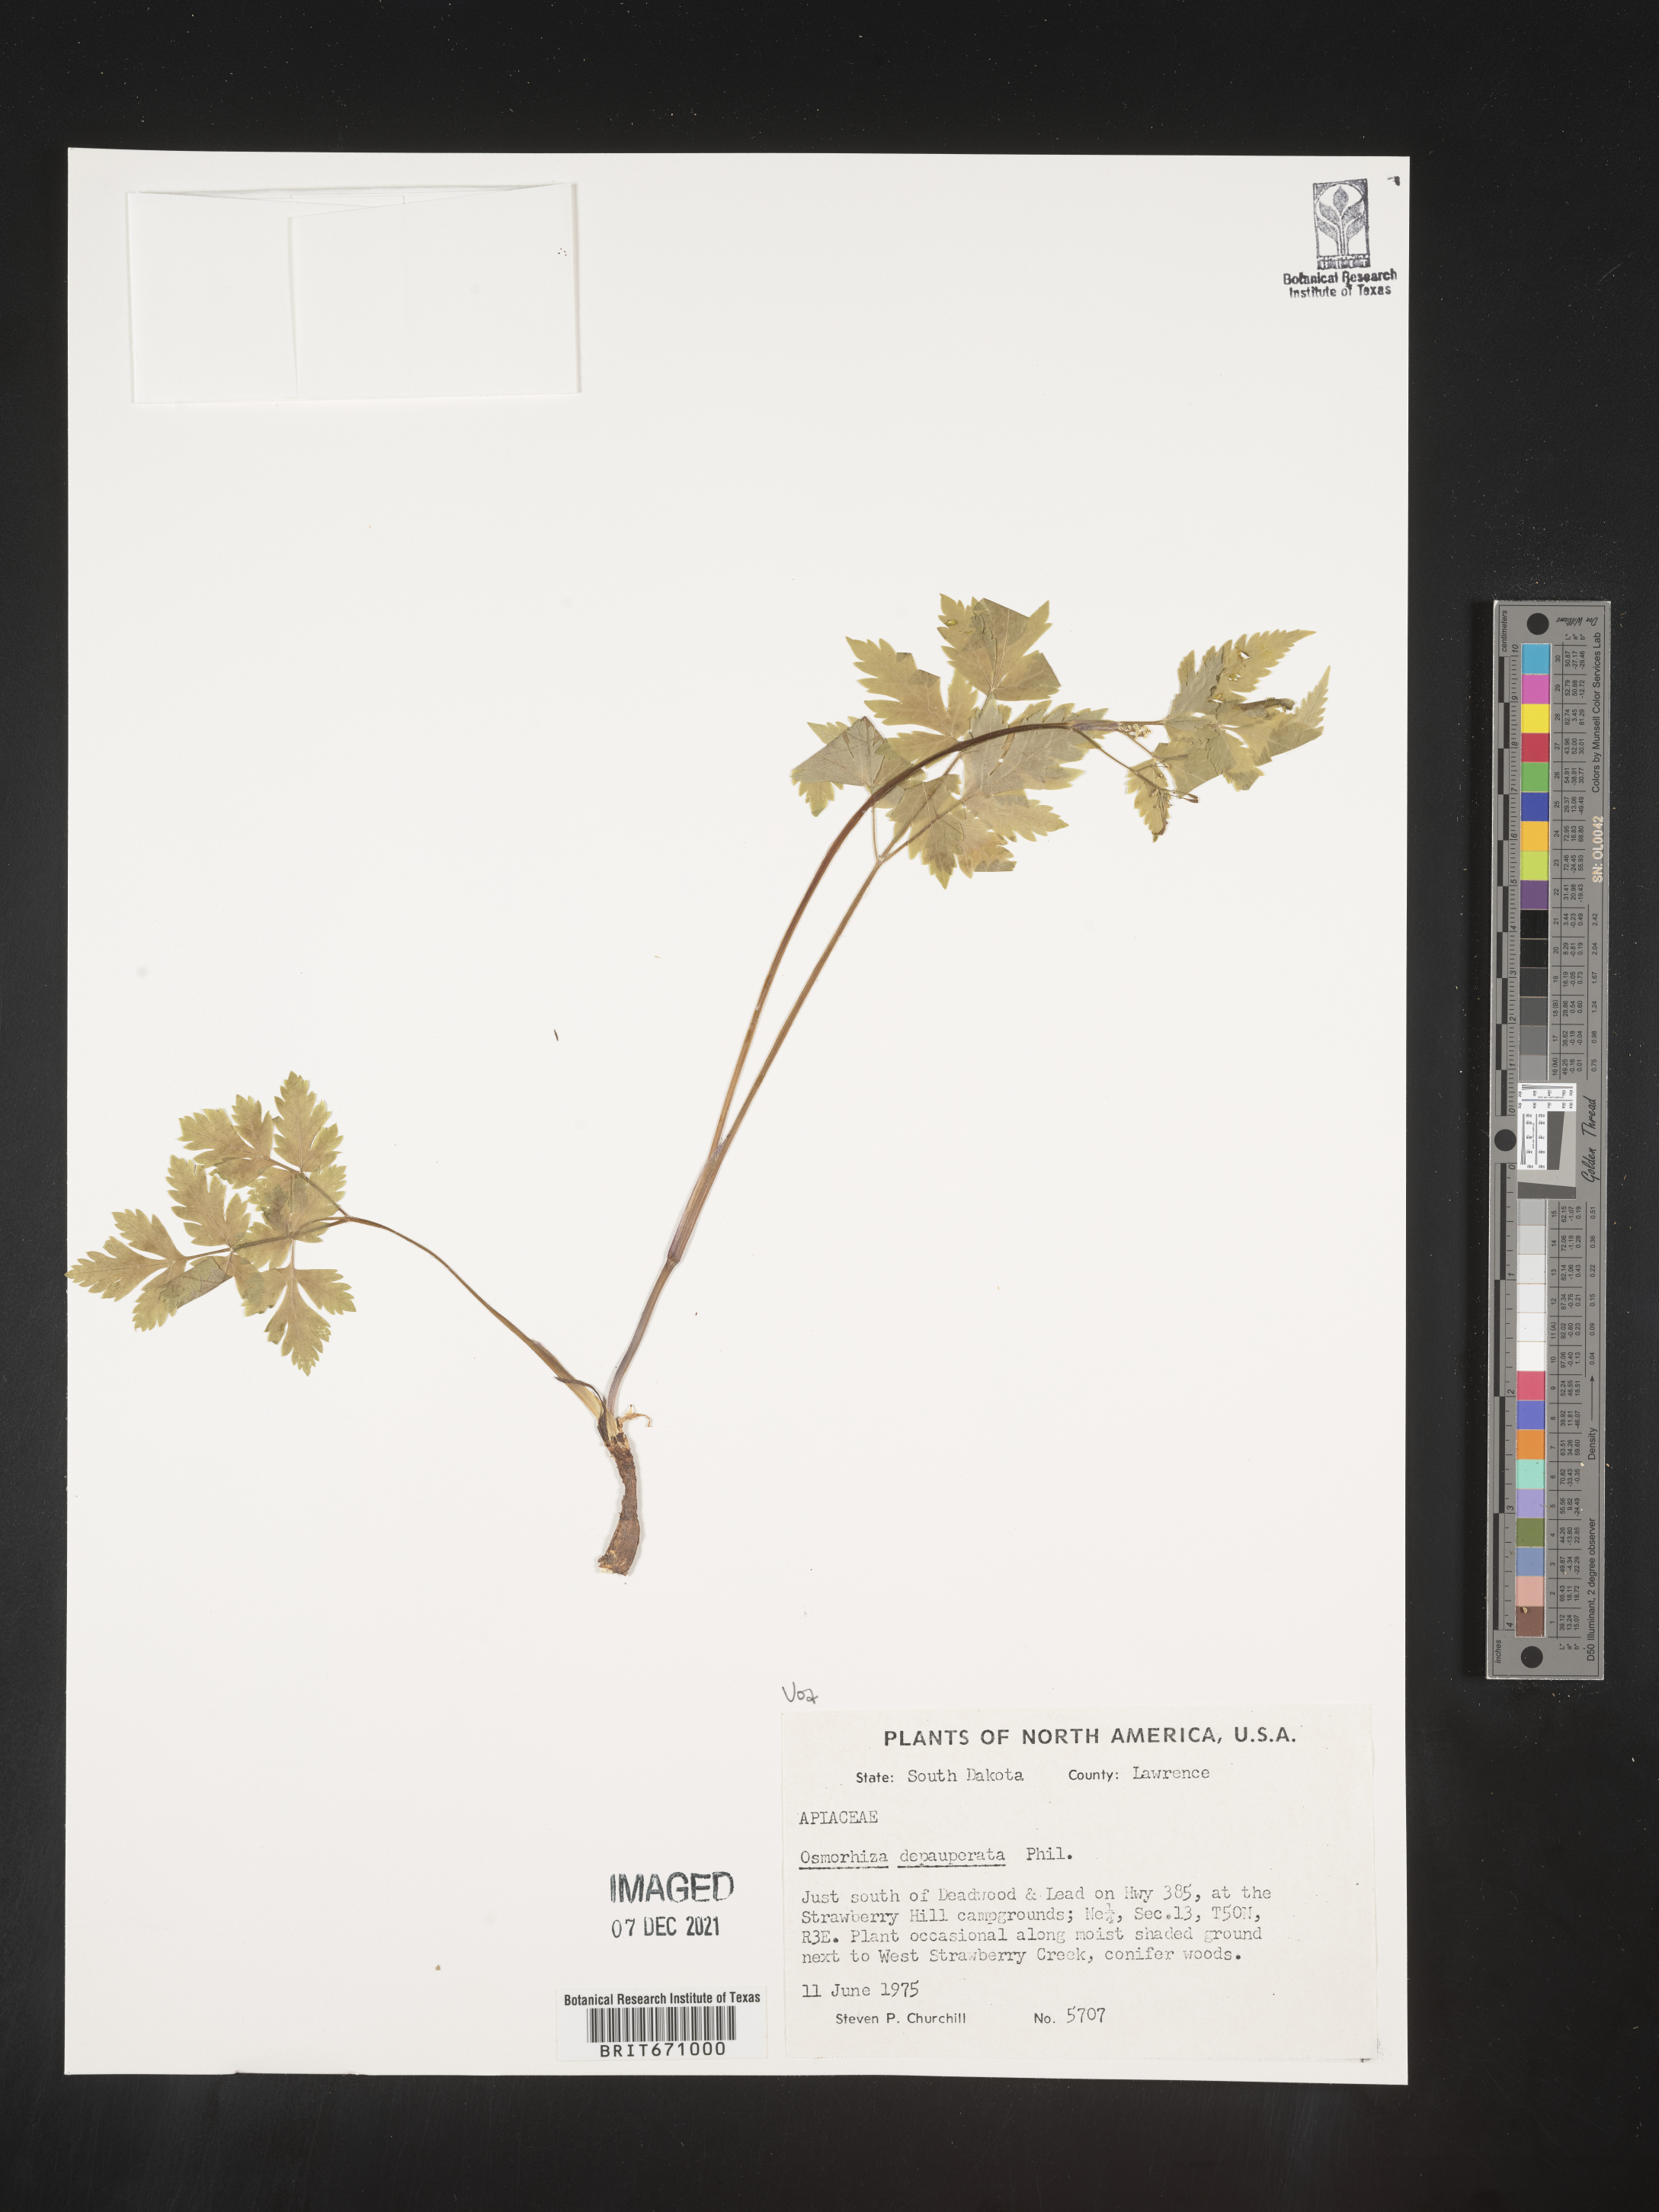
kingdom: Plantae
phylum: Tracheophyta
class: Magnoliopsida
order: Apiales
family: Apiaceae
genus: Osmorhiza
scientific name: Osmorhiza depauperata
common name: Blunt sweet cicely
